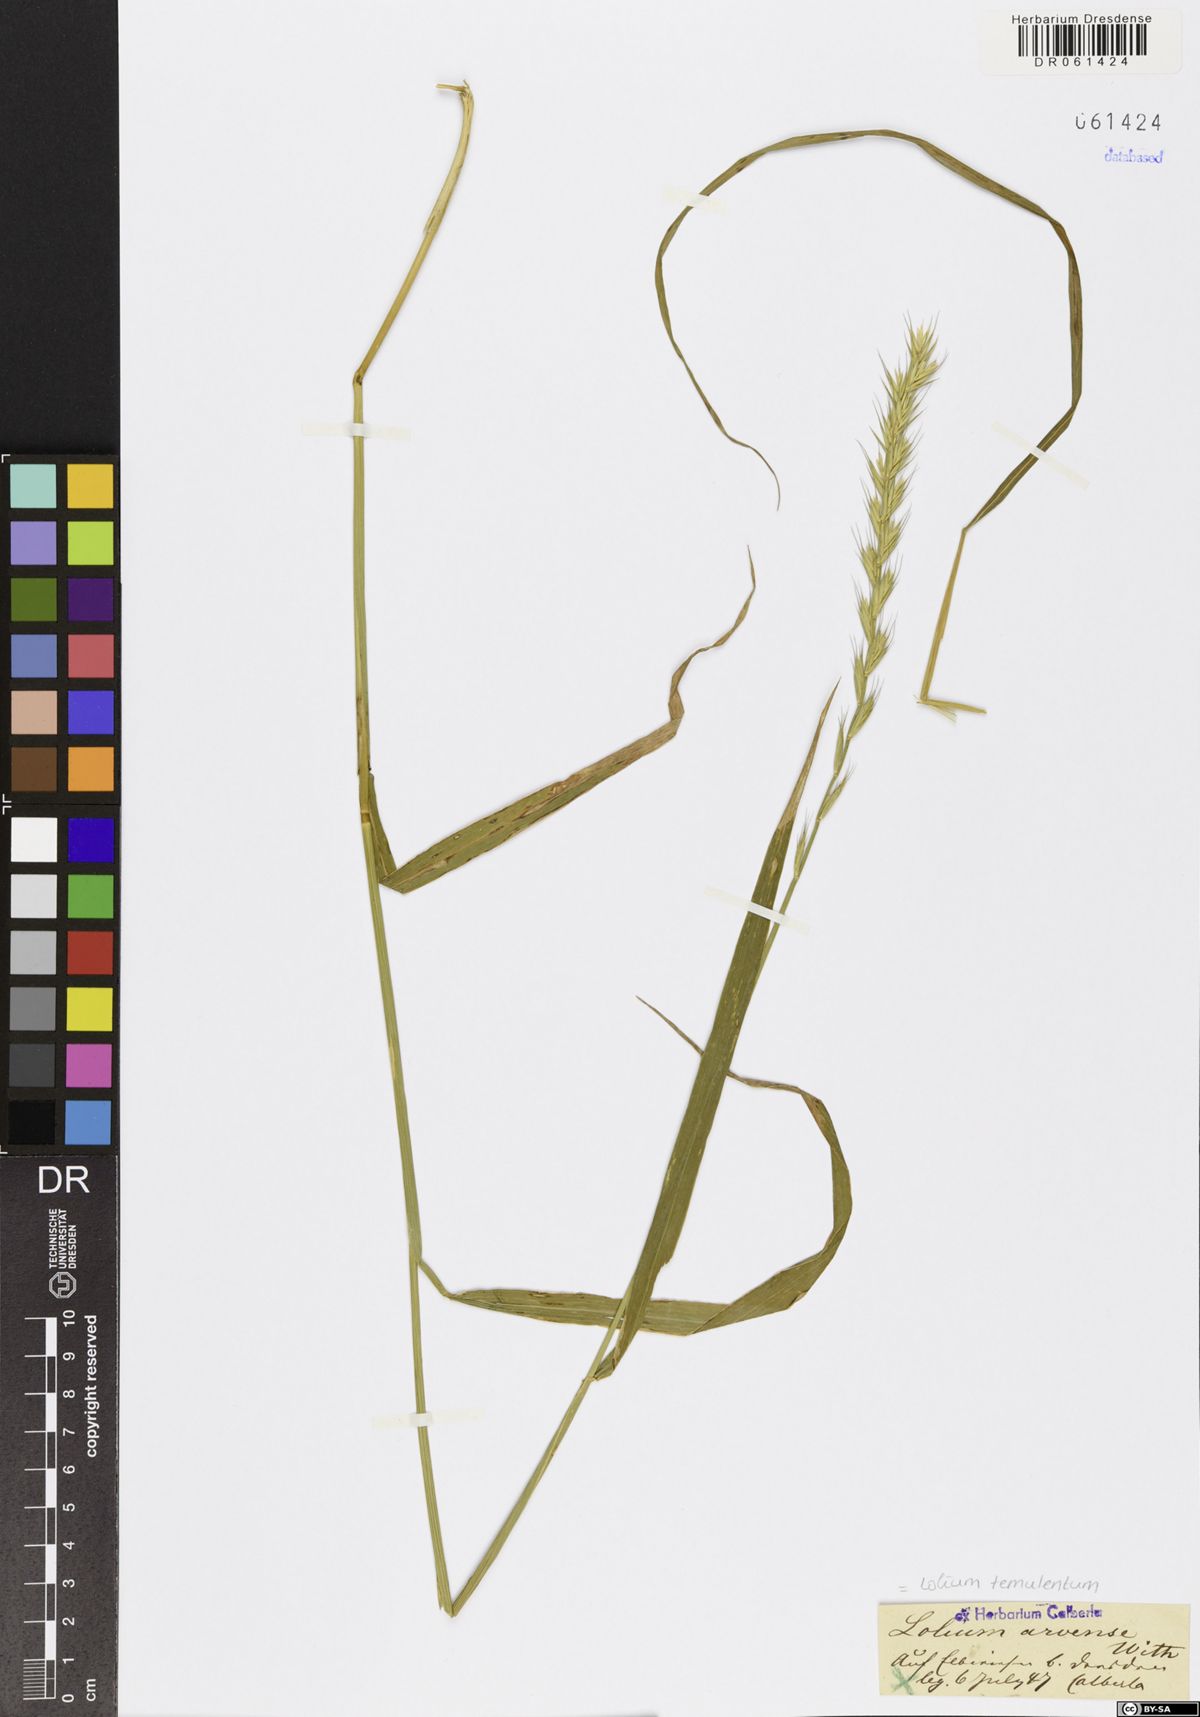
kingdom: Plantae
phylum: Tracheophyta
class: Liliopsida
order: Poales
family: Poaceae
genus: Lolium
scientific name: Lolium temulentum
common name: Darnel
